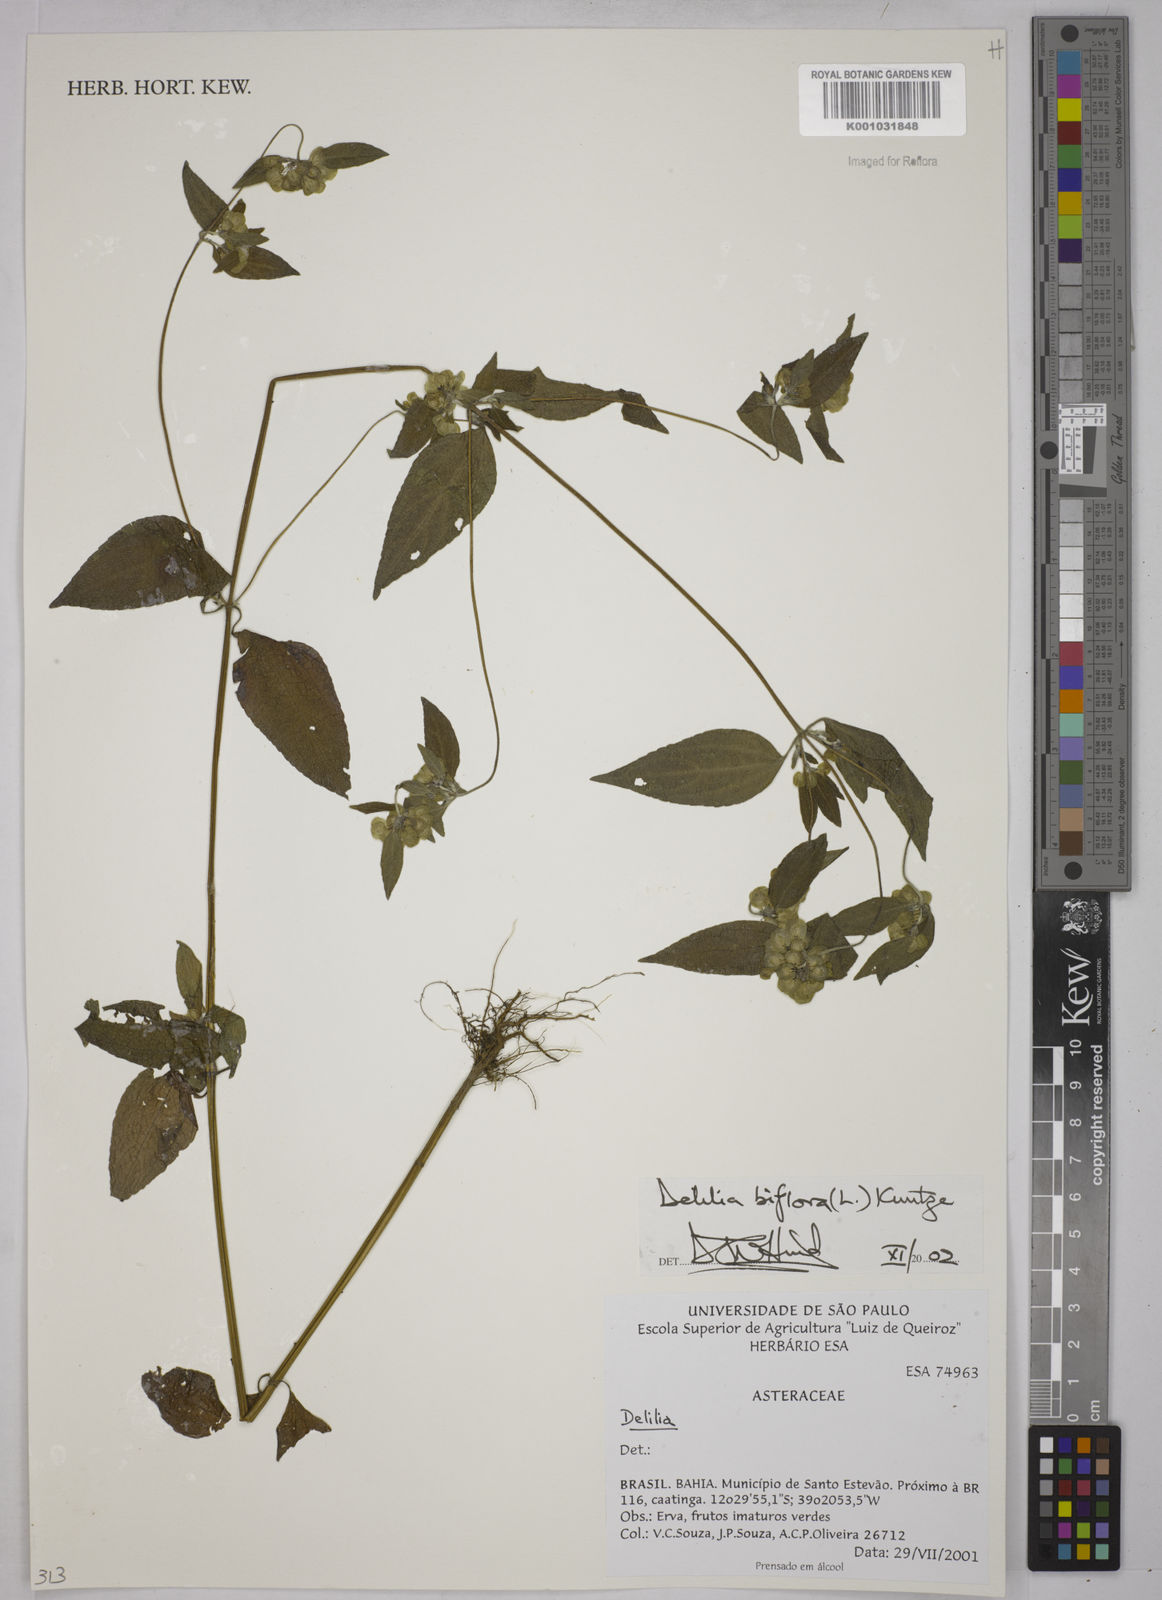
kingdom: Plantae
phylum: Tracheophyta
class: Magnoliopsida
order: Asterales
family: Asteraceae
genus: Delilia
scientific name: Delilia biflora
